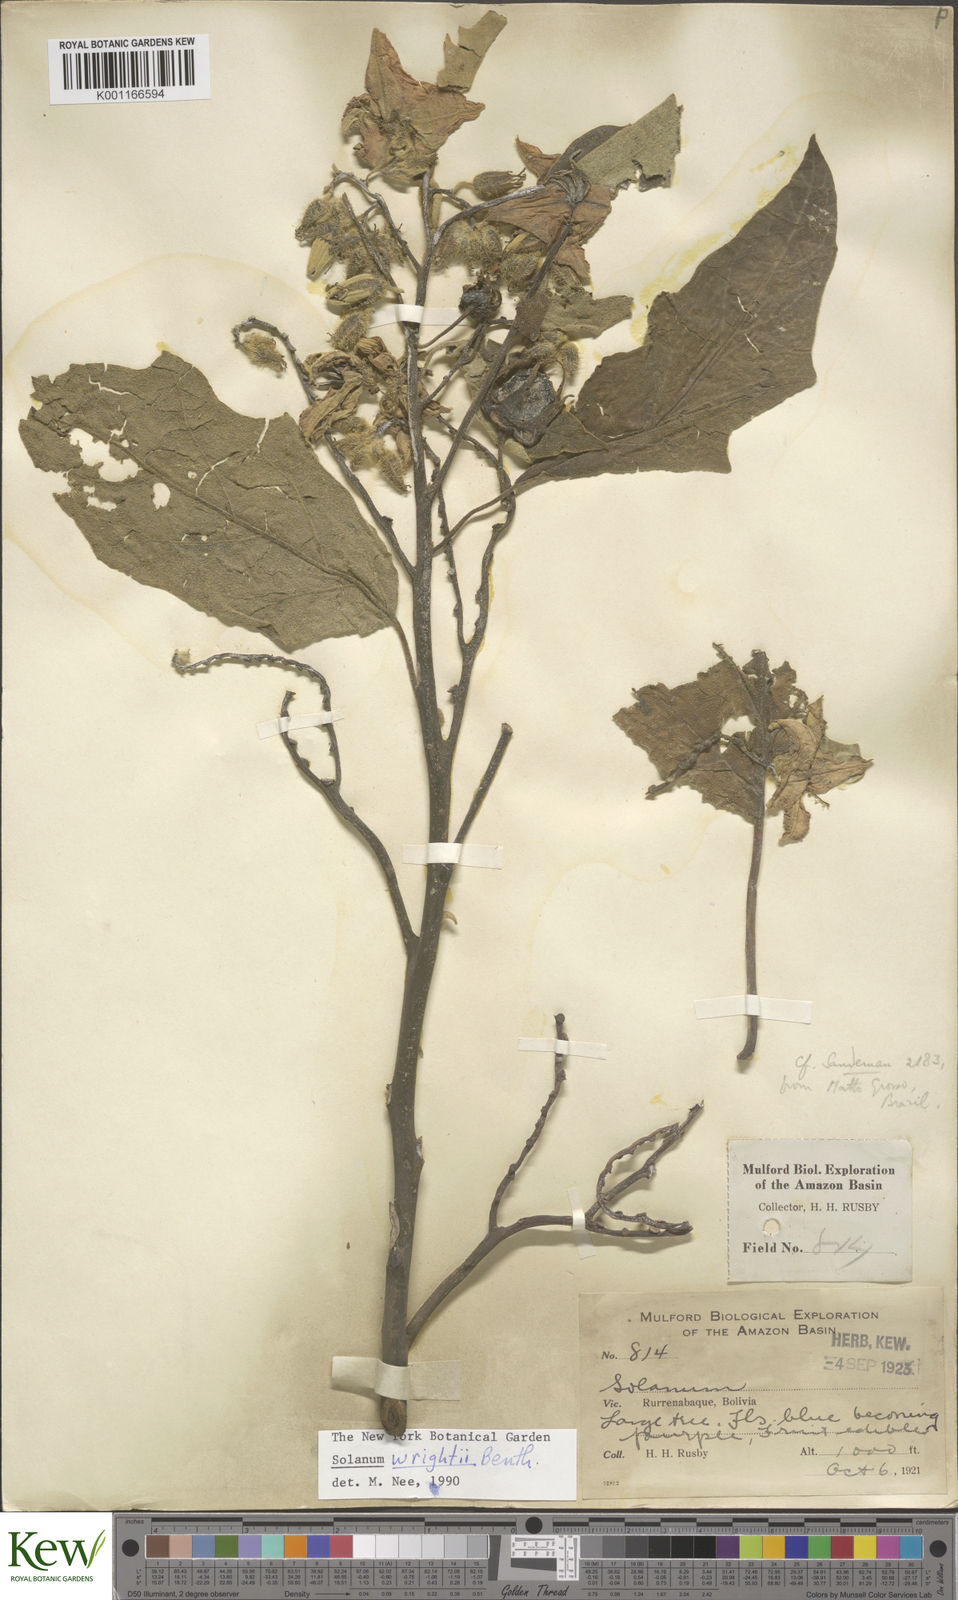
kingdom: Plantae
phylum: Tracheophyta
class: Magnoliopsida
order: Solanales
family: Solanaceae
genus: Solanum
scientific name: Solanum wrightii
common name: Brazilian potato-tree
